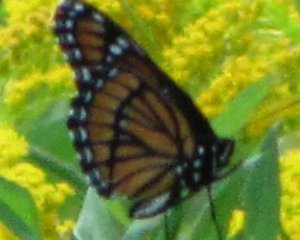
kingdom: Animalia
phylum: Arthropoda
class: Insecta
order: Lepidoptera
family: Nymphalidae
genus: Limenitis
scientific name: Limenitis archippus
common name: Viceroy
